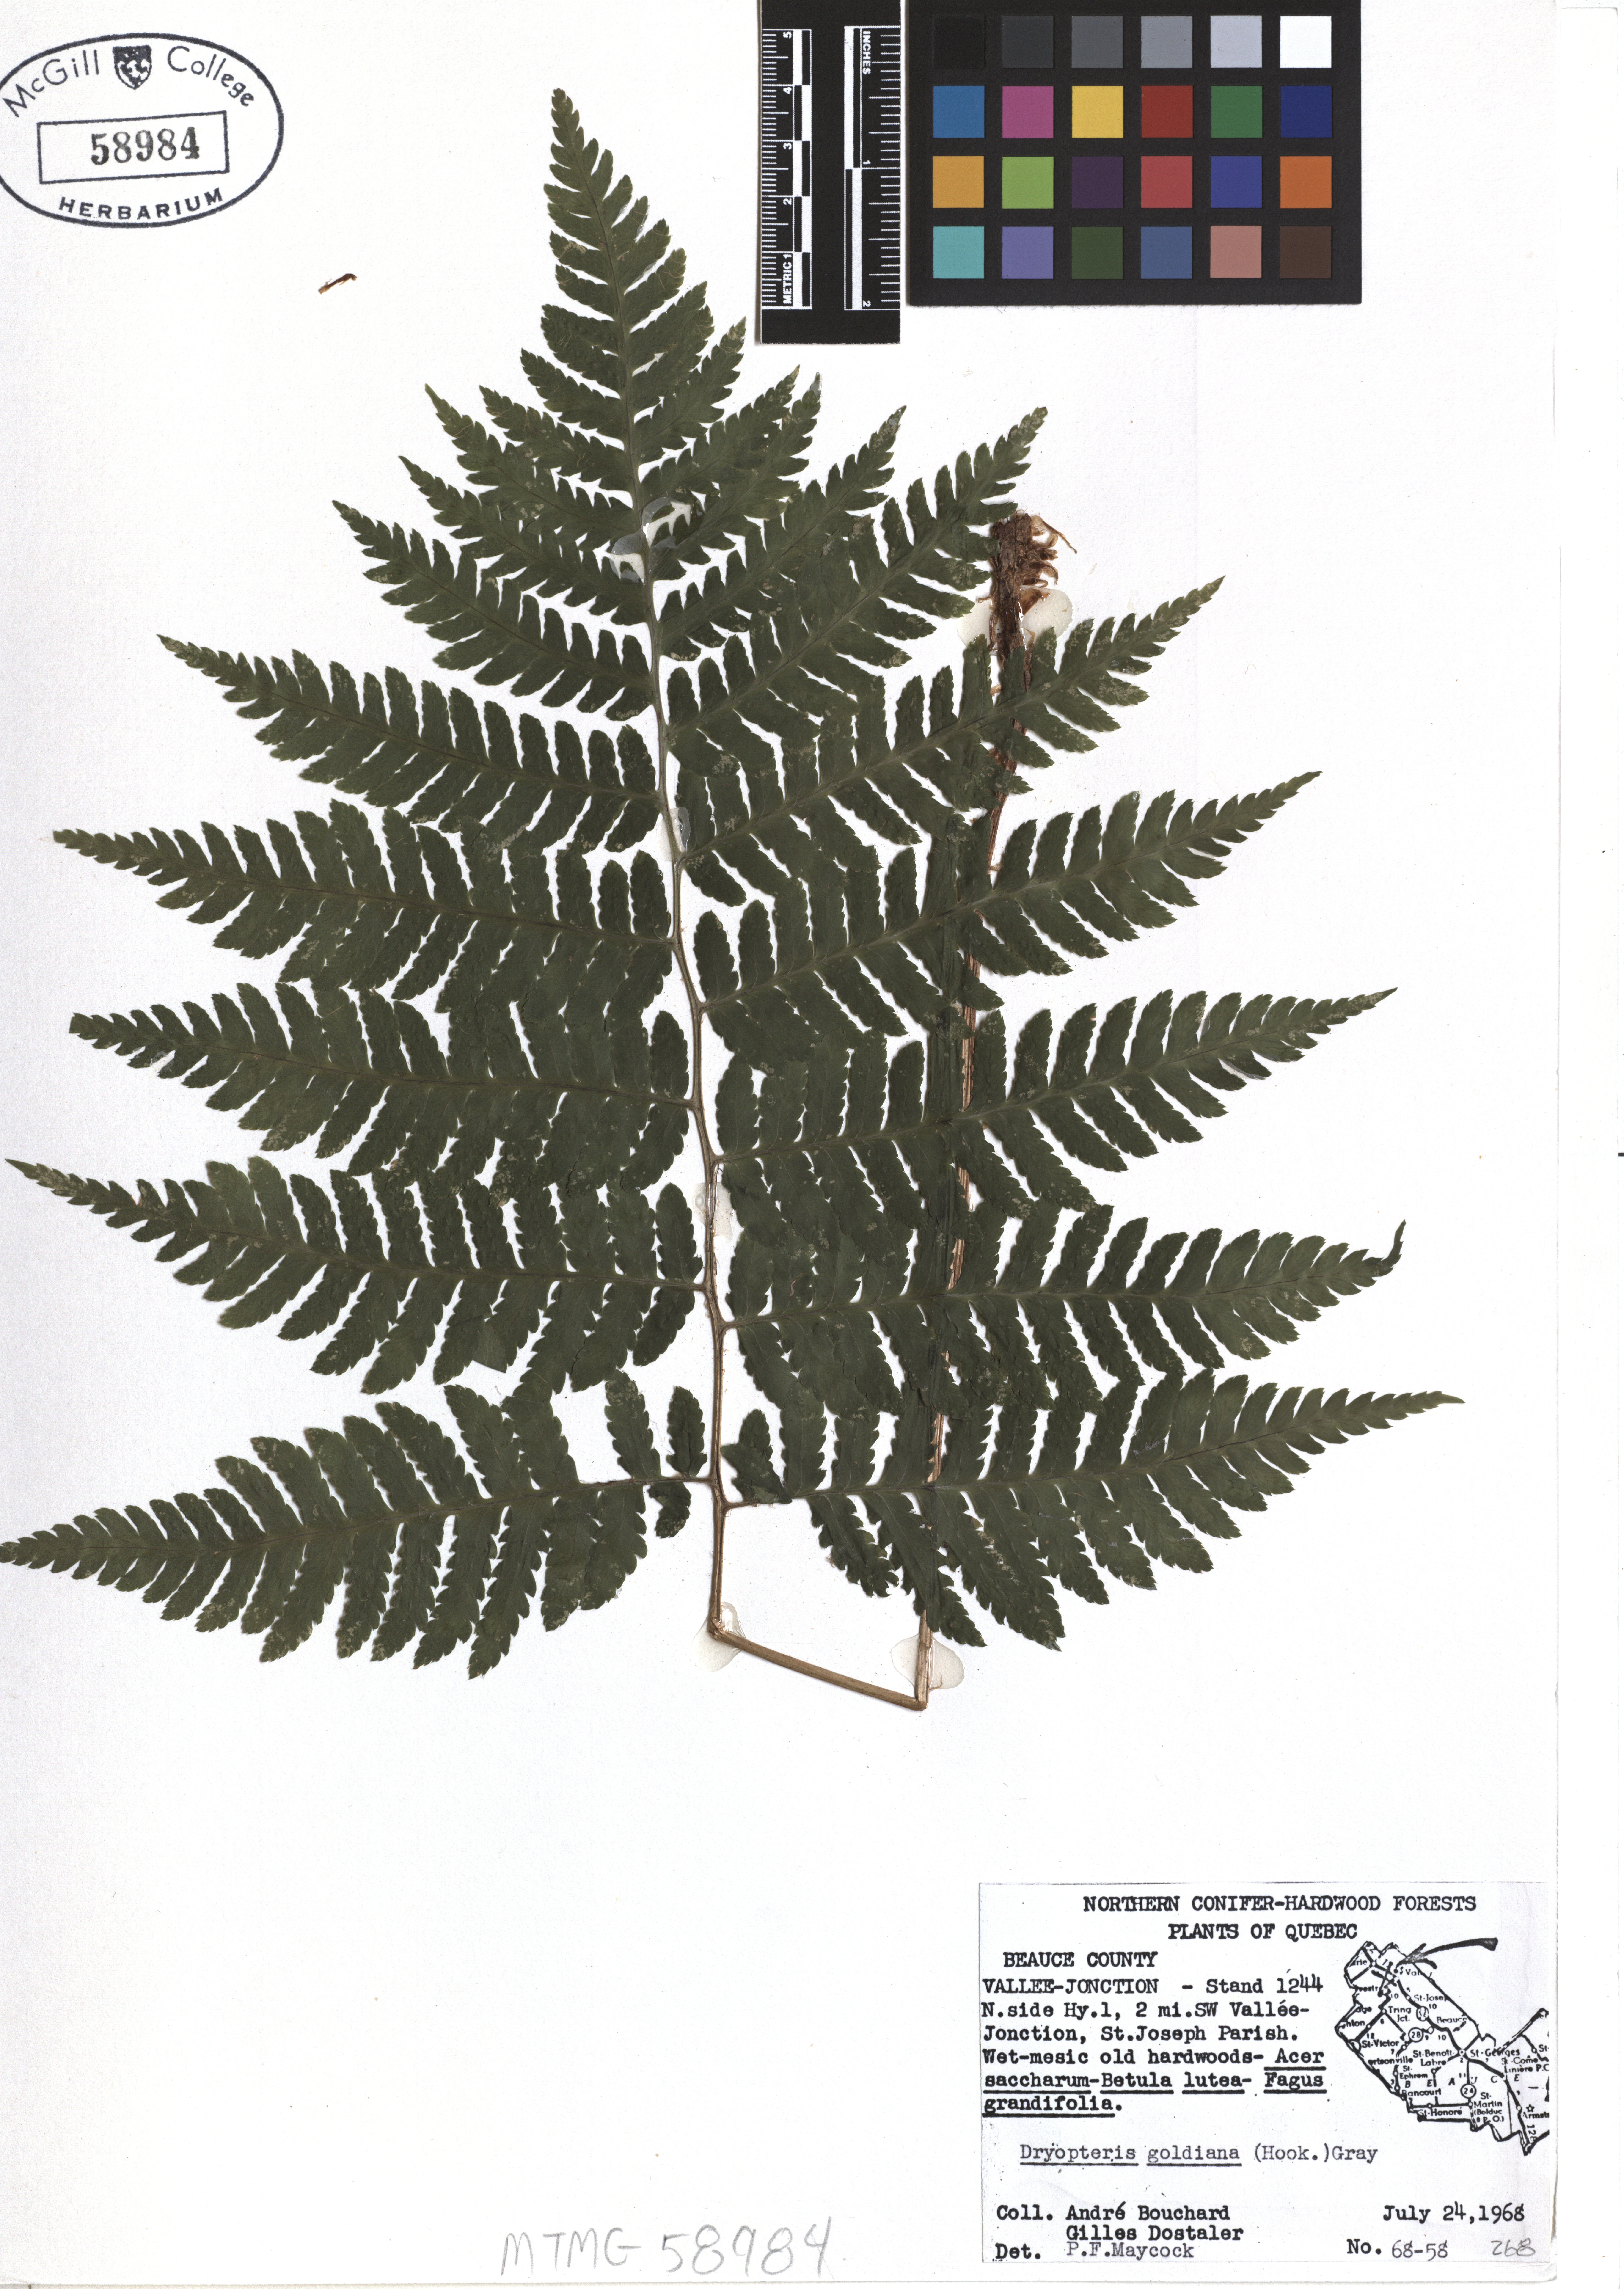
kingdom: Plantae
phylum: Tracheophyta
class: Polypodiopsida
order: Polypodiales
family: Dryopteridaceae
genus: Dryopteris
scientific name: Dryopteris goeldiana
